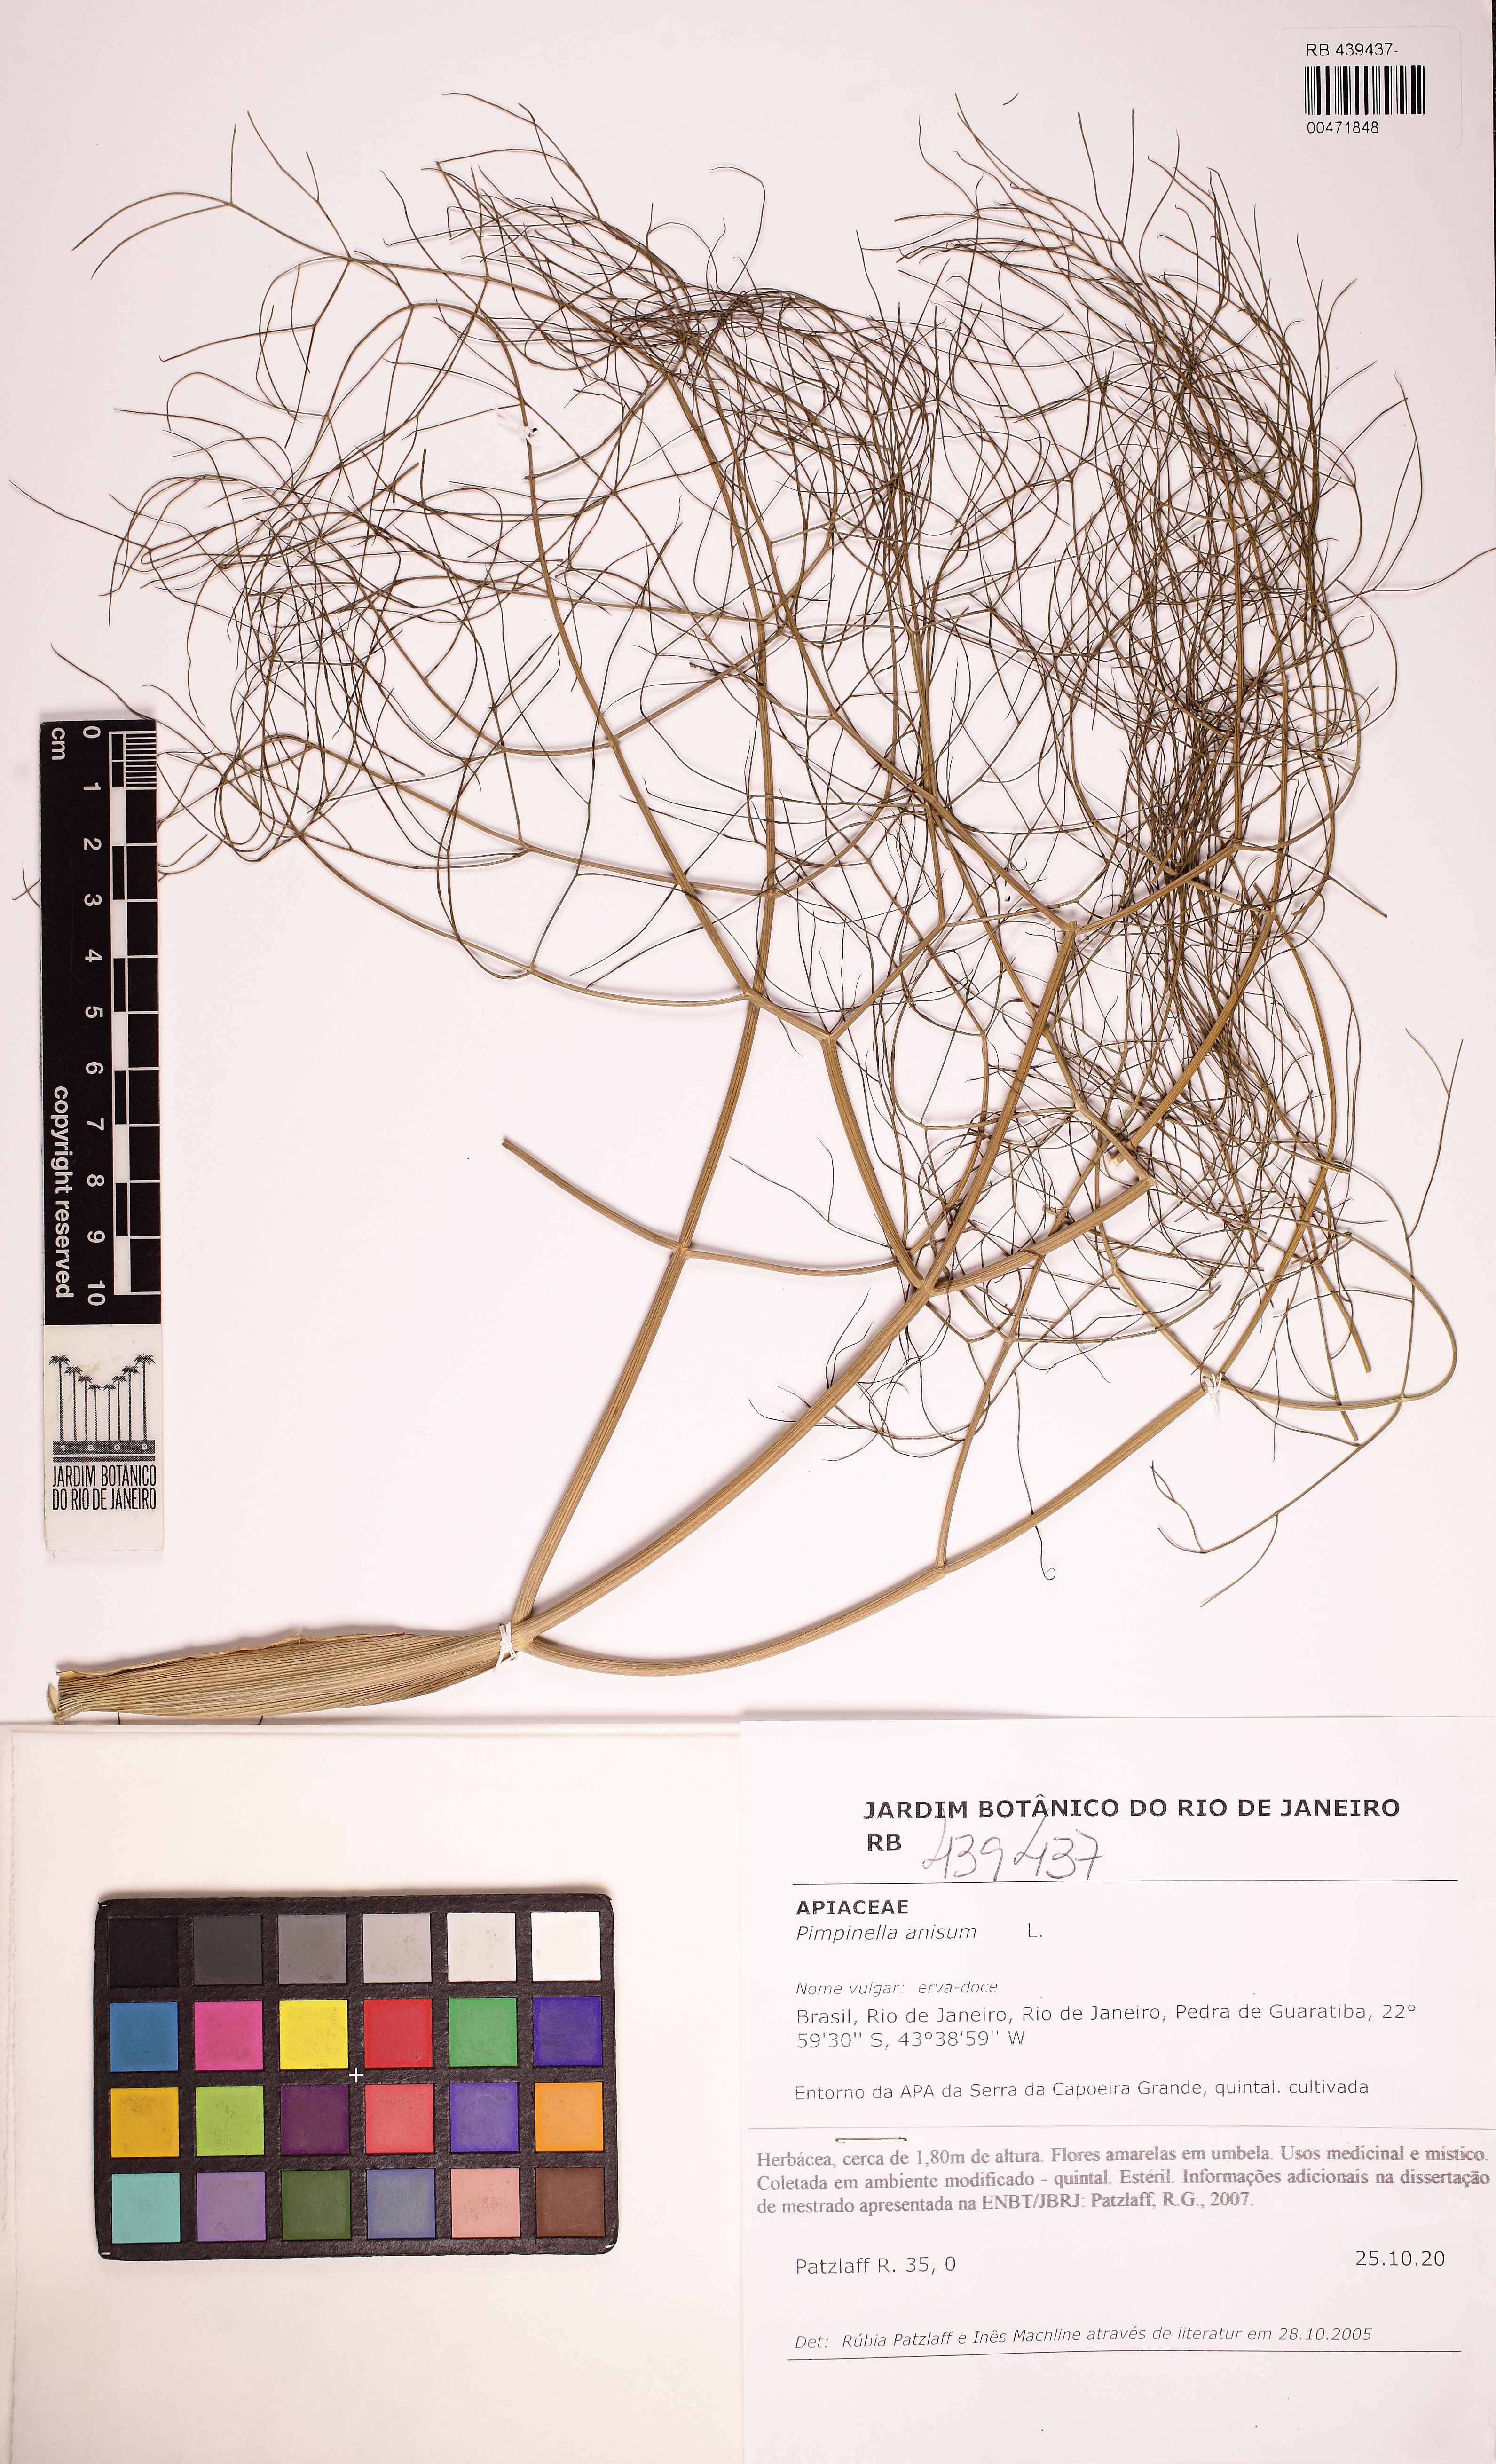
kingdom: Plantae
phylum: Tracheophyta
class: Magnoliopsida
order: Apiales
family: Apiaceae
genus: Pimpinella
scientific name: Pimpinella anisum
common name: Anise burnet saxifrage
